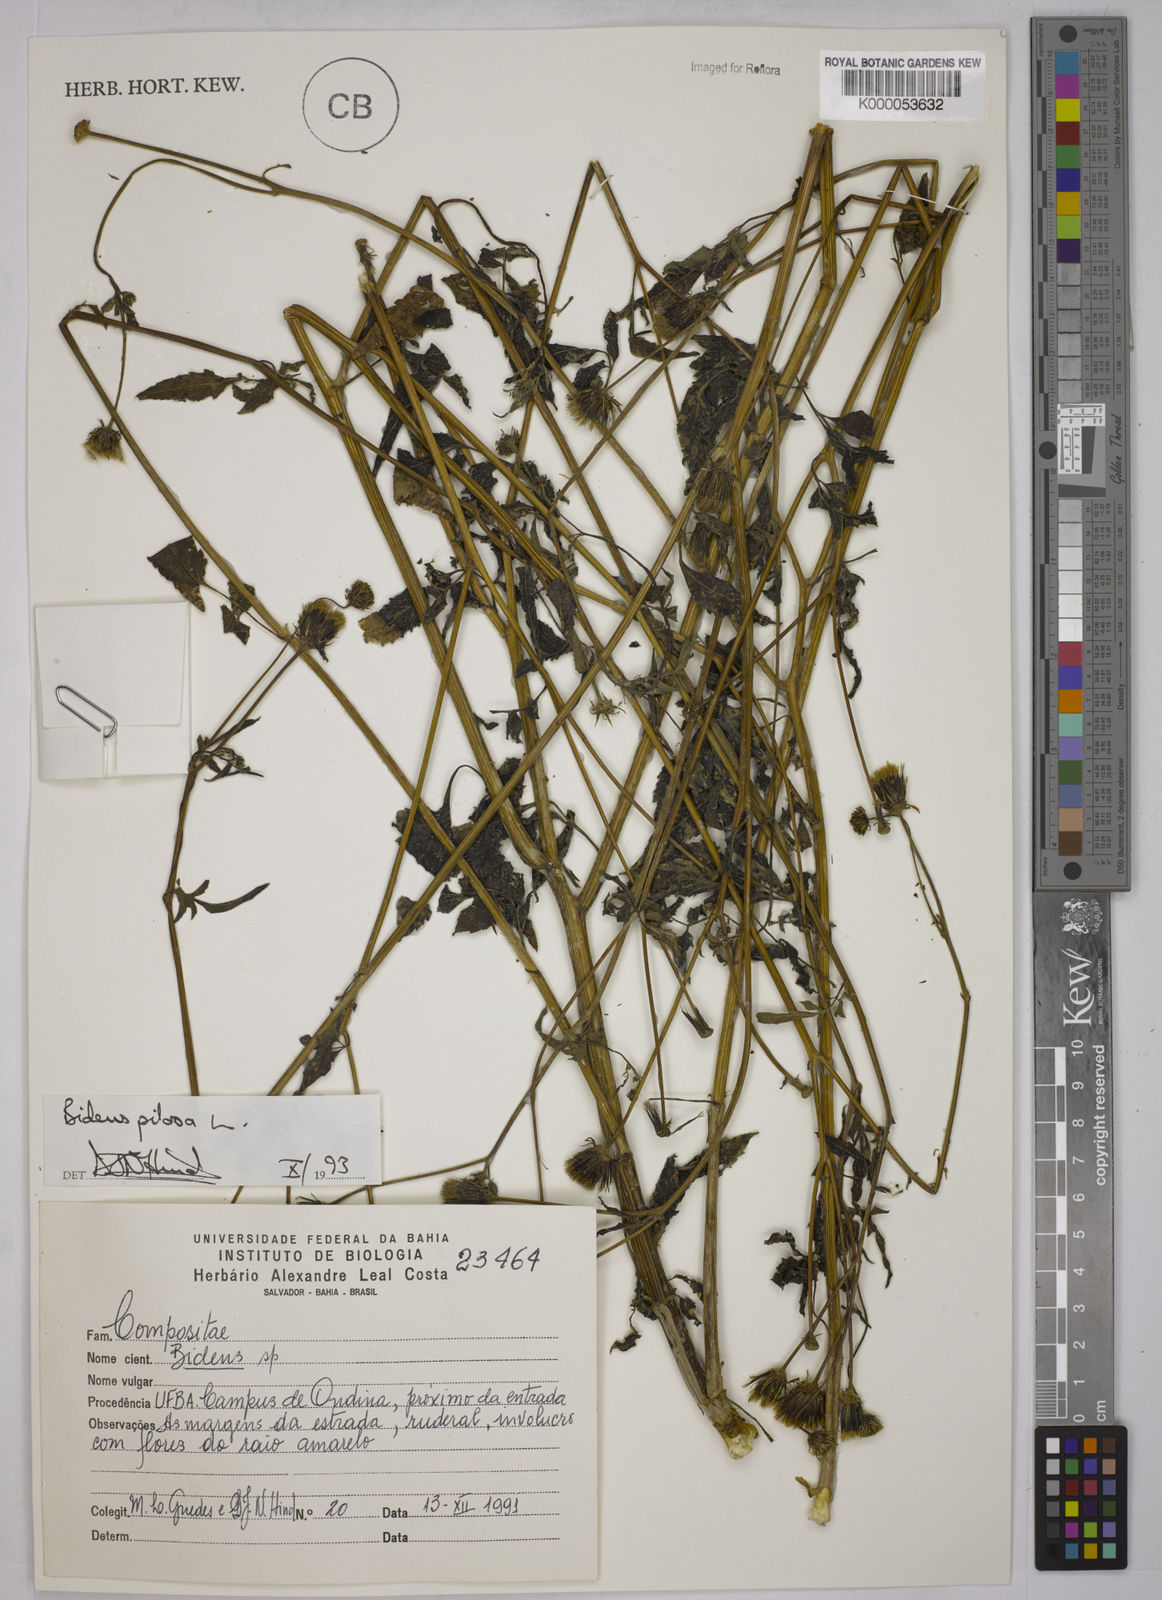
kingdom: Plantae
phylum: Tracheophyta
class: Magnoliopsida
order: Asterales
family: Asteraceae
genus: Bidens
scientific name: Bidens pilosa
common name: Black-jack
